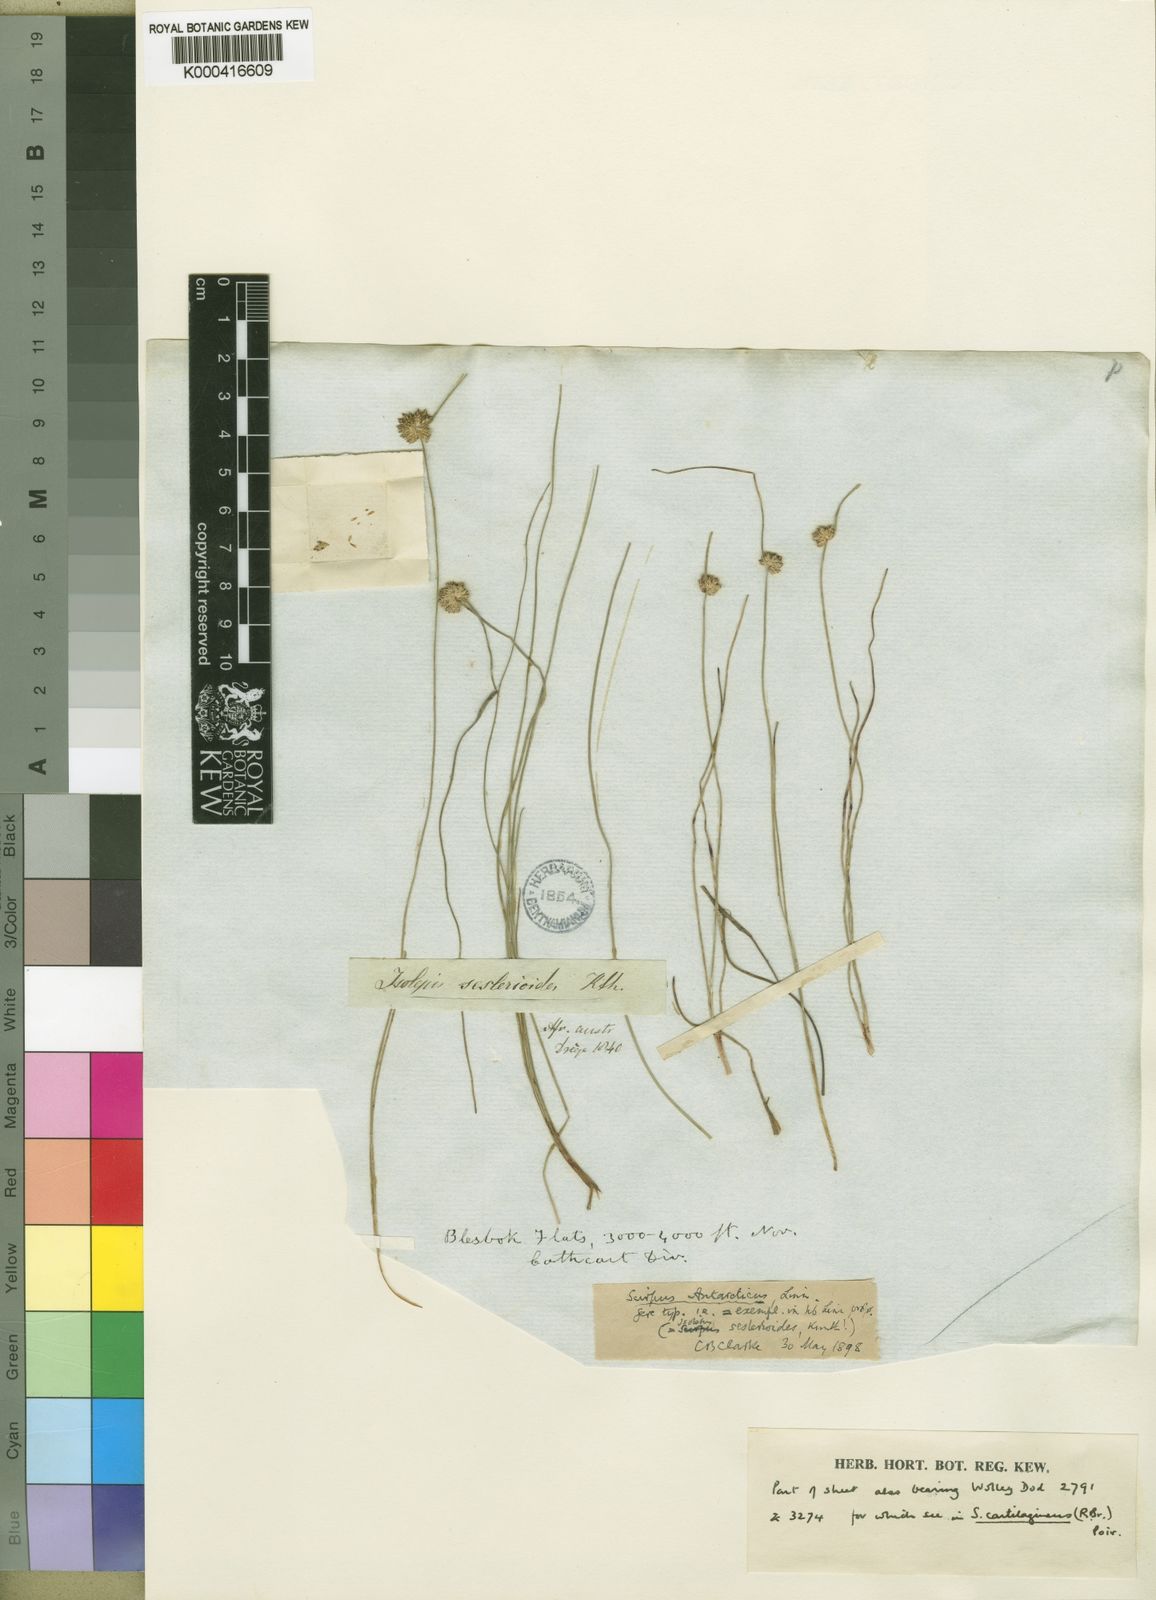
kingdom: Plantae
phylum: Tracheophyta
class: Liliopsida
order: Poales
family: Cyperaceae
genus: Isolepis
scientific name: Isolepis antarctica
